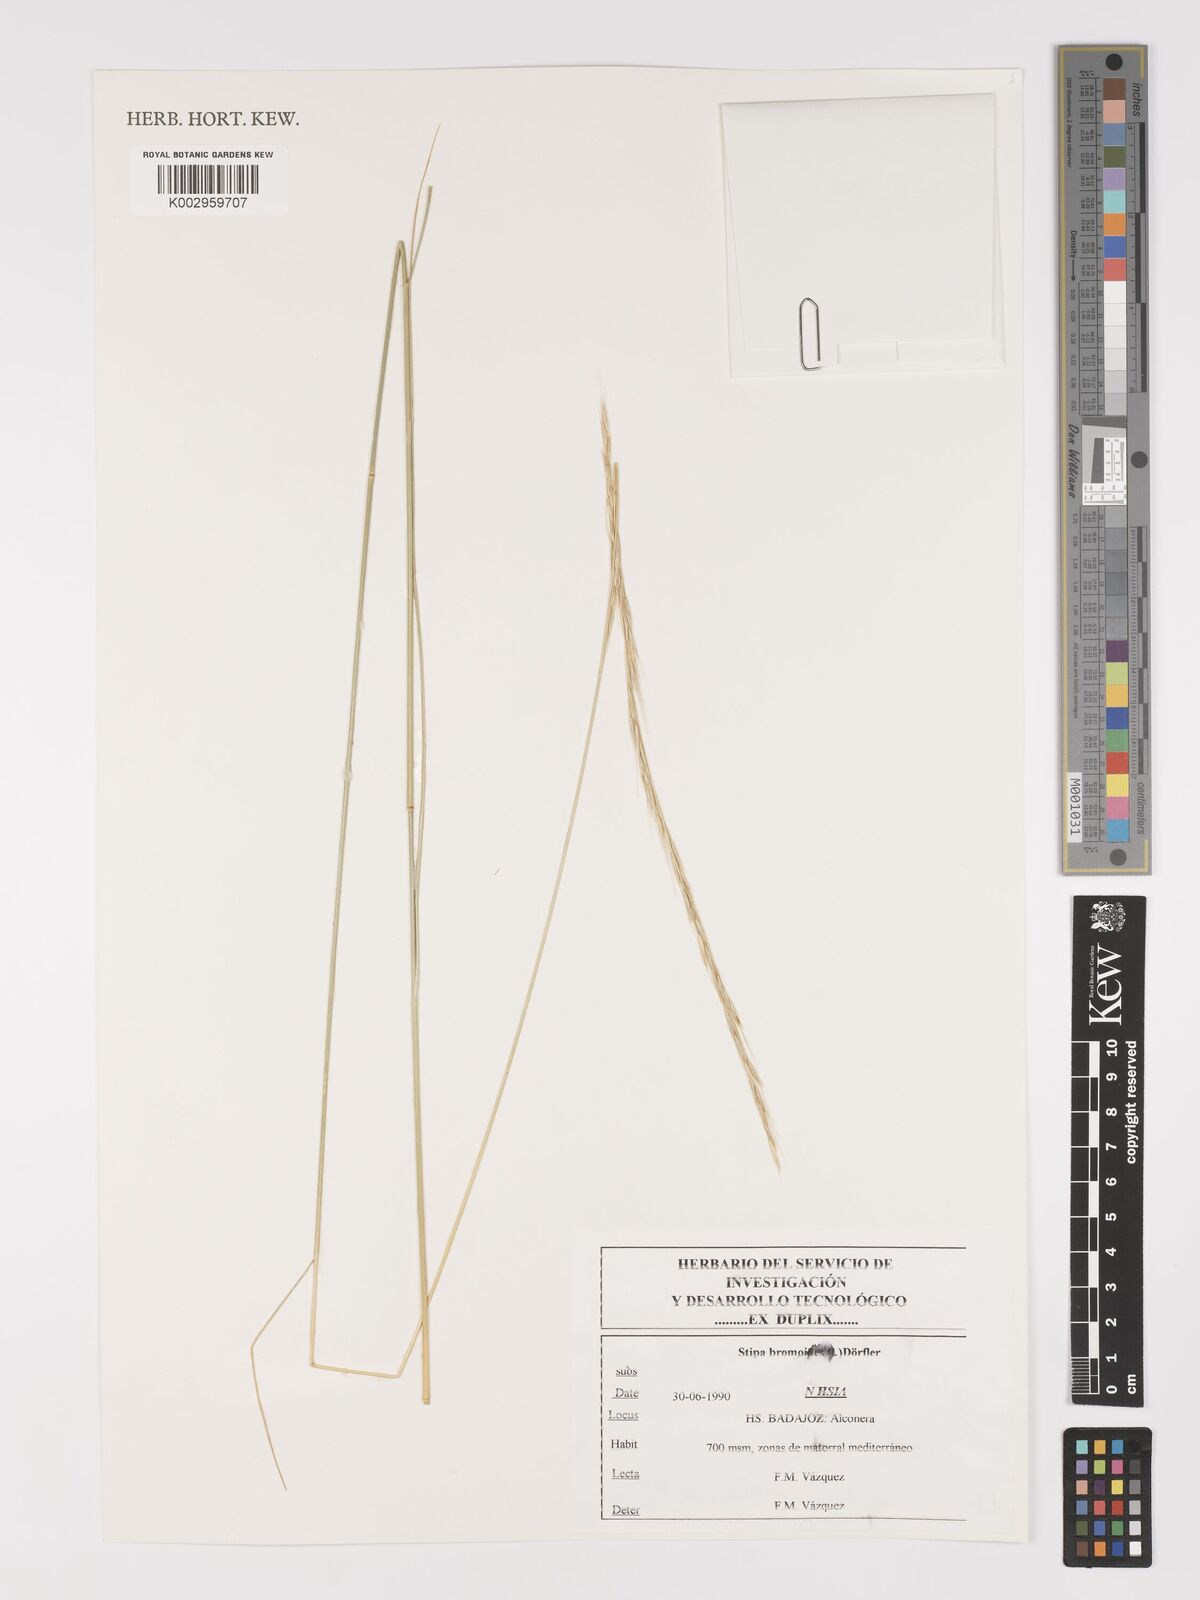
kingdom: Plantae
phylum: Tracheophyta
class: Liliopsida
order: Poales
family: Poaceae
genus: Achnatherum
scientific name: Achnatherum bromoides
